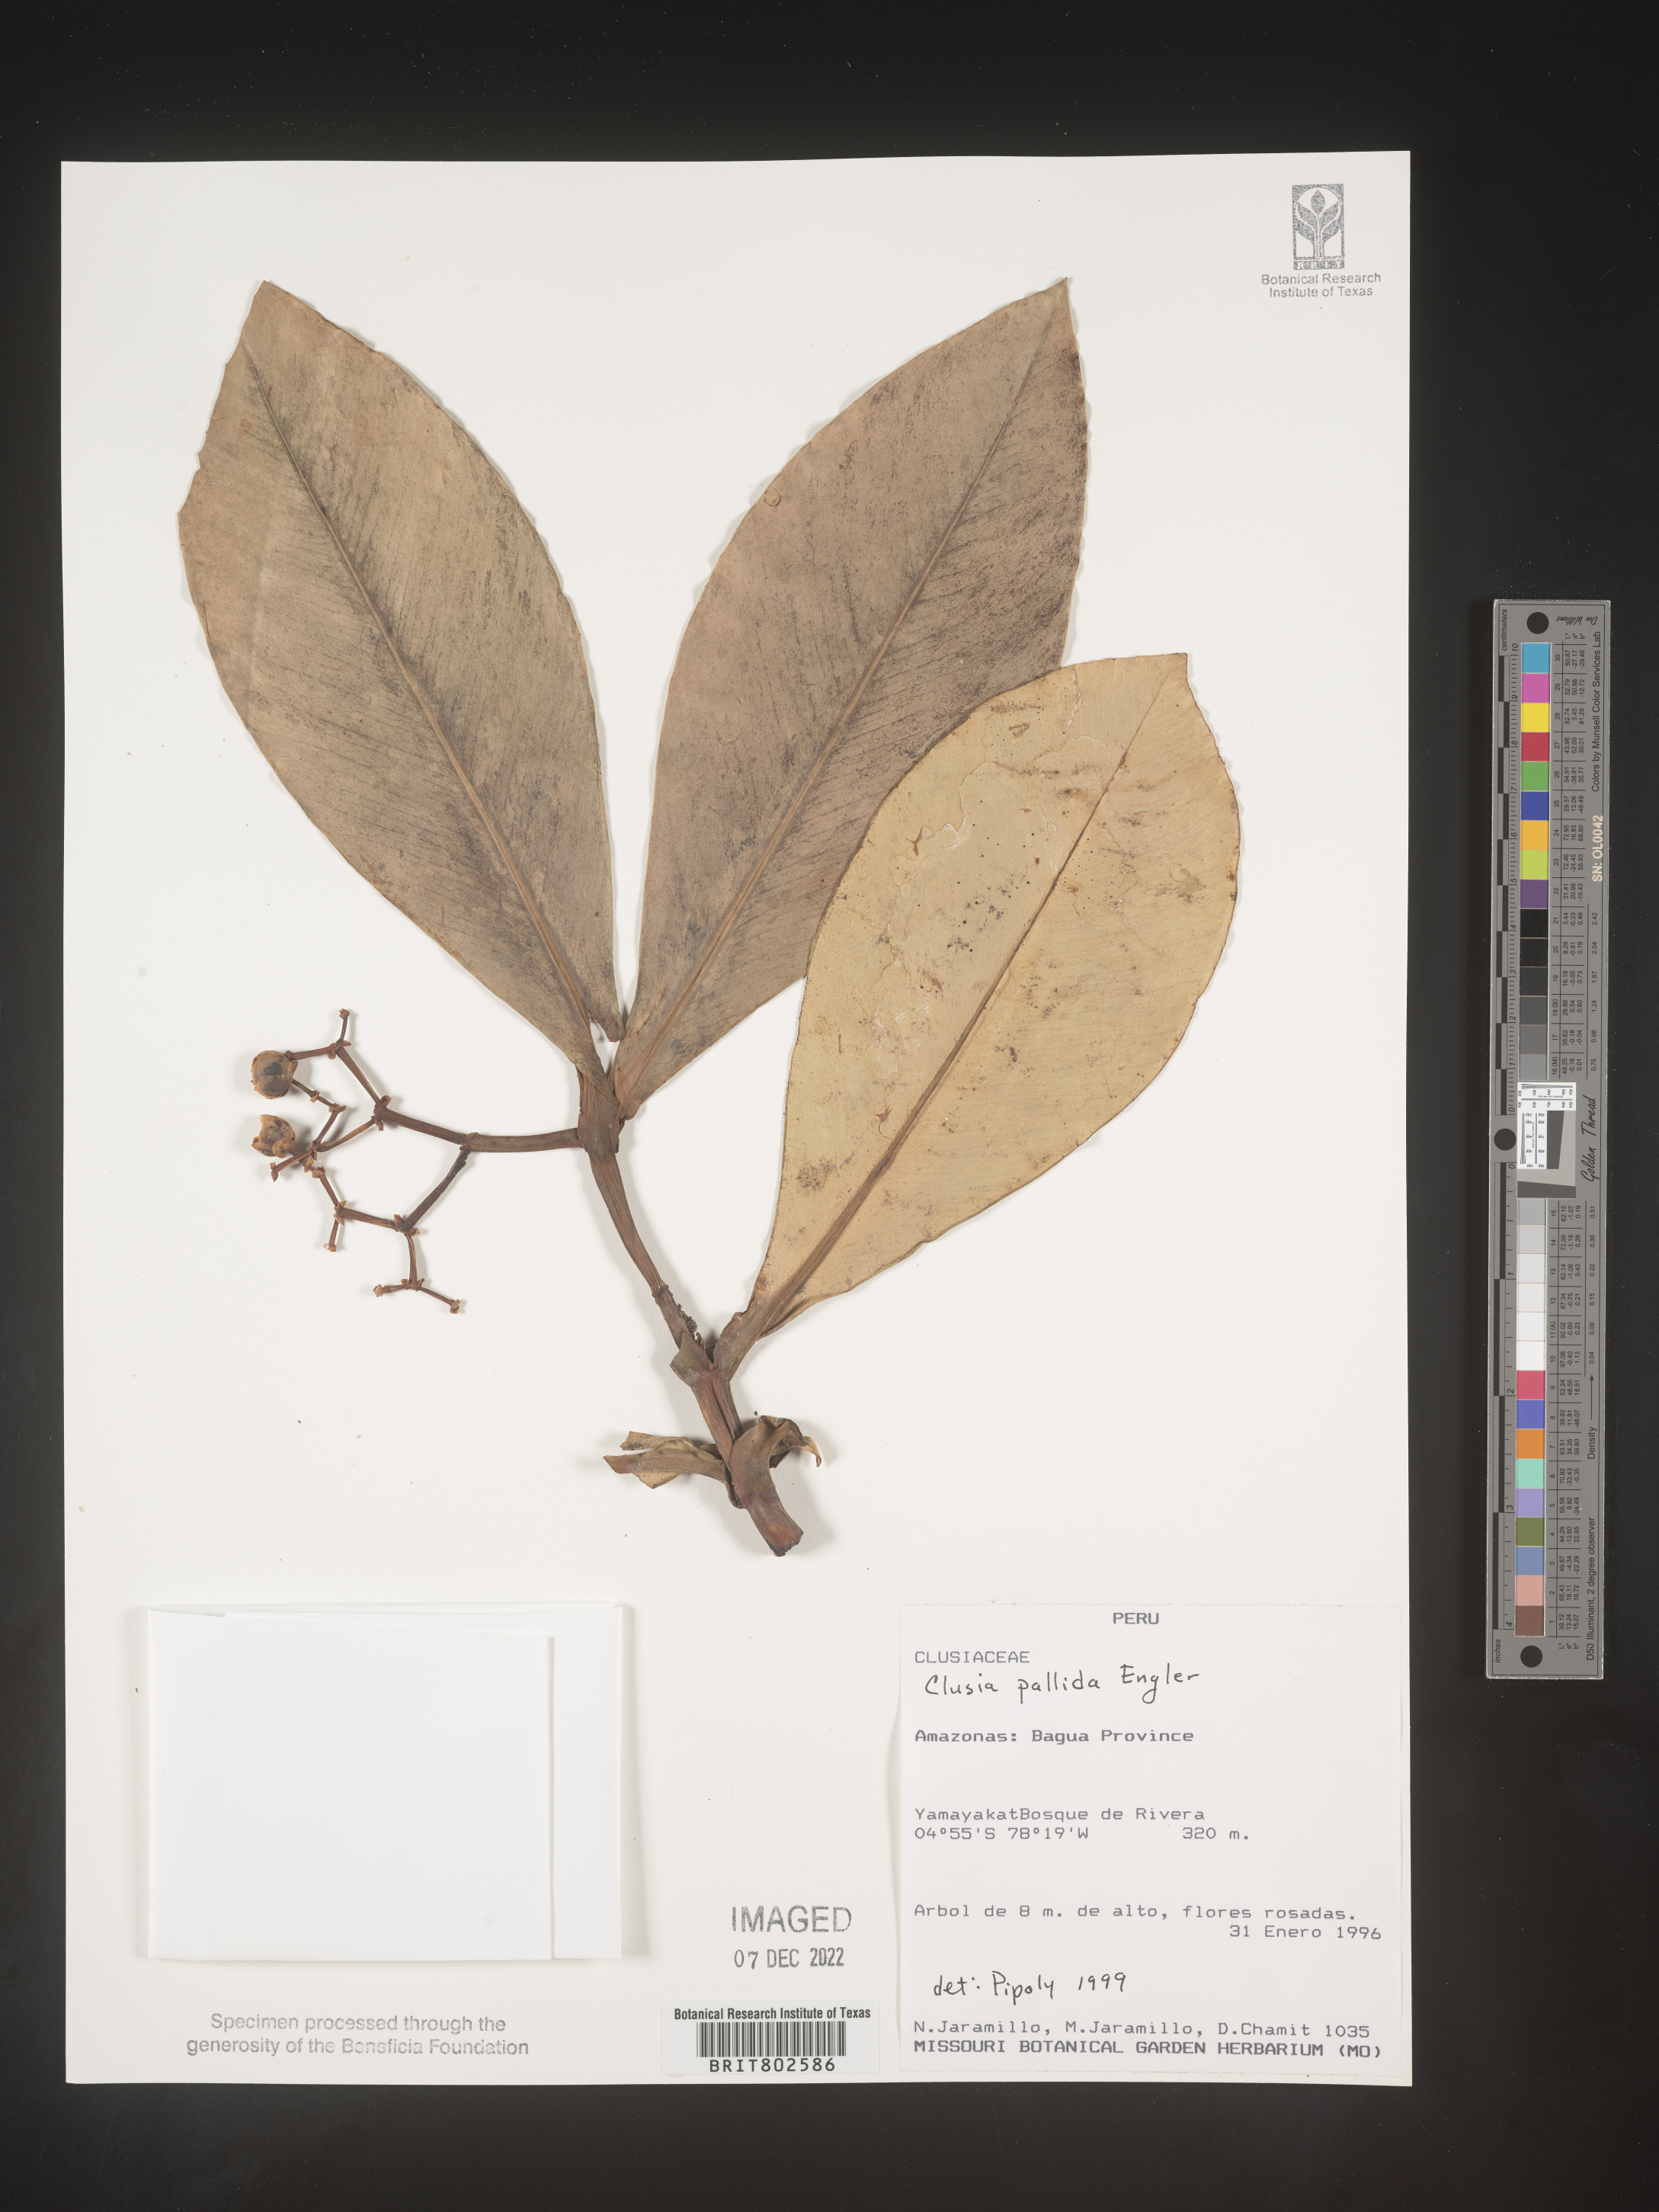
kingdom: Plantae
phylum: Tracheophyta
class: Magnoliopsida
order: Malpighiales
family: Clusiaceae
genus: Clusia
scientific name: Clusia pallida
